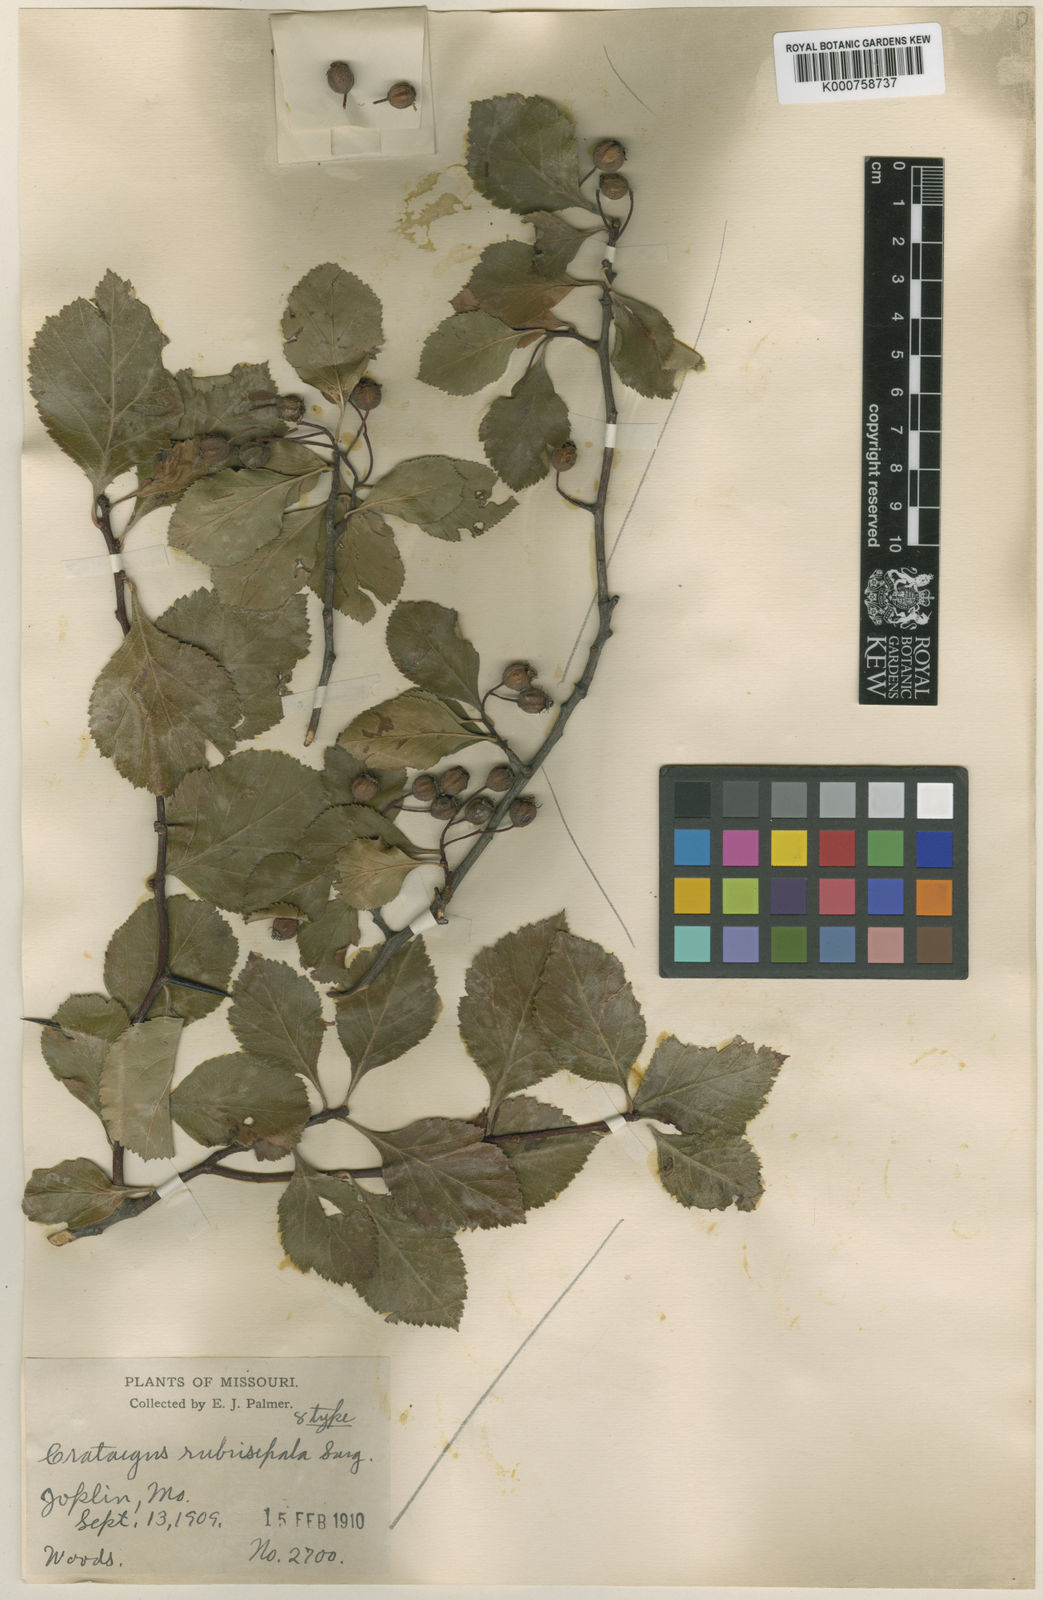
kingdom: Plantae
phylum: Tracheophyta
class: Magnoliopsida
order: Rosales
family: Rosaceae
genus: Crataegus
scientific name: Crataegus
